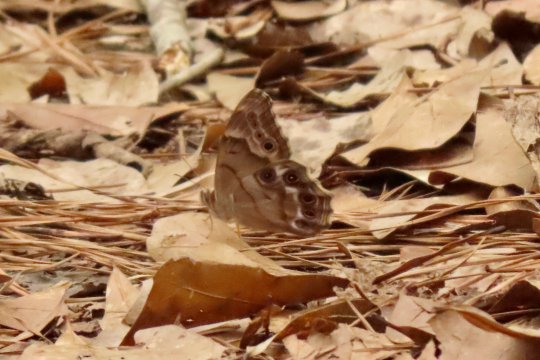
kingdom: Animalia
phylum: Arthropoda
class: Insecta
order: Lepidoptera
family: Nymphalidae
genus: Enodia
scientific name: Enodia portlandia
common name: Southern Pearly Eye
